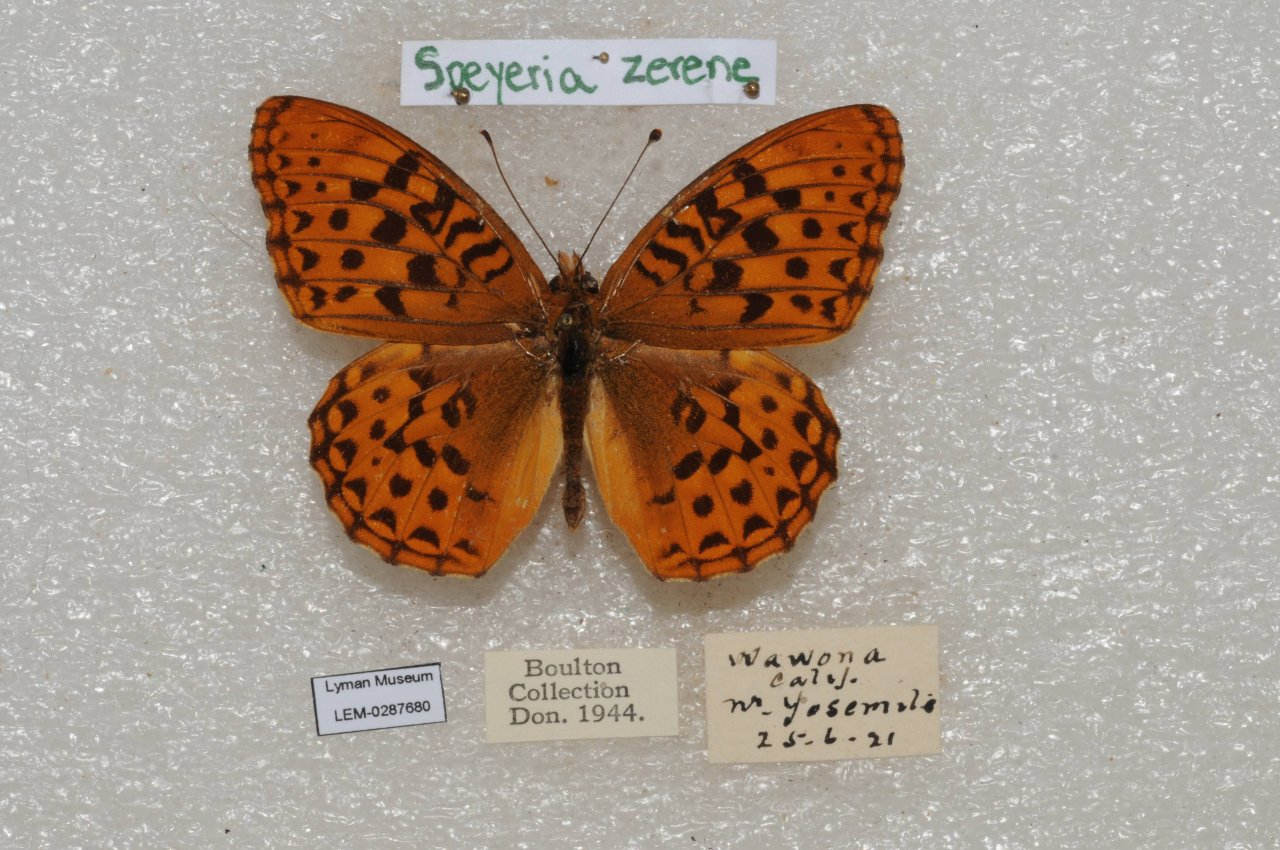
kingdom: Animalia
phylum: Arthropoda
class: Insecta
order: Lepidoptera
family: Nymphalidae
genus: Speyeria
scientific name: Speyeria zerene
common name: Zerene Fritillary
